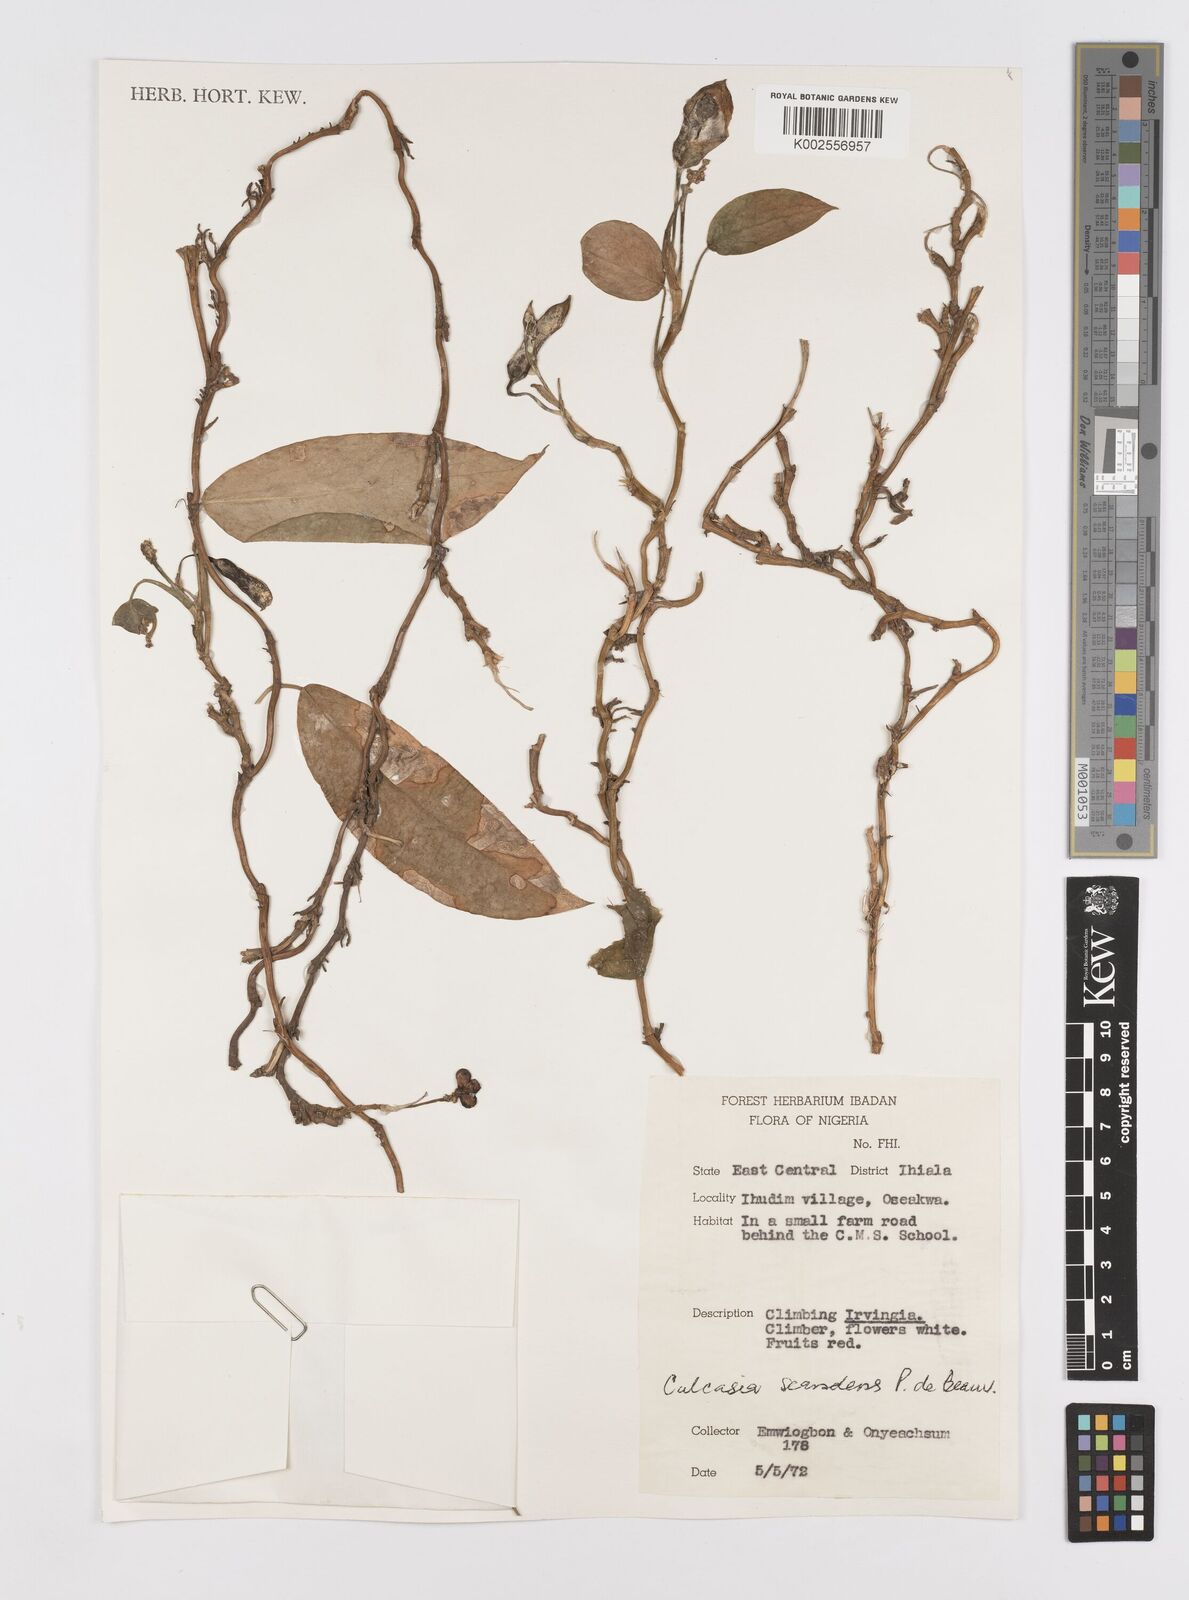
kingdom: Plantae
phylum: Tracheophyta
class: Liliopsida
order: Alismatales
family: Araceae
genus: Culcasia
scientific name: Culcasia scandens
